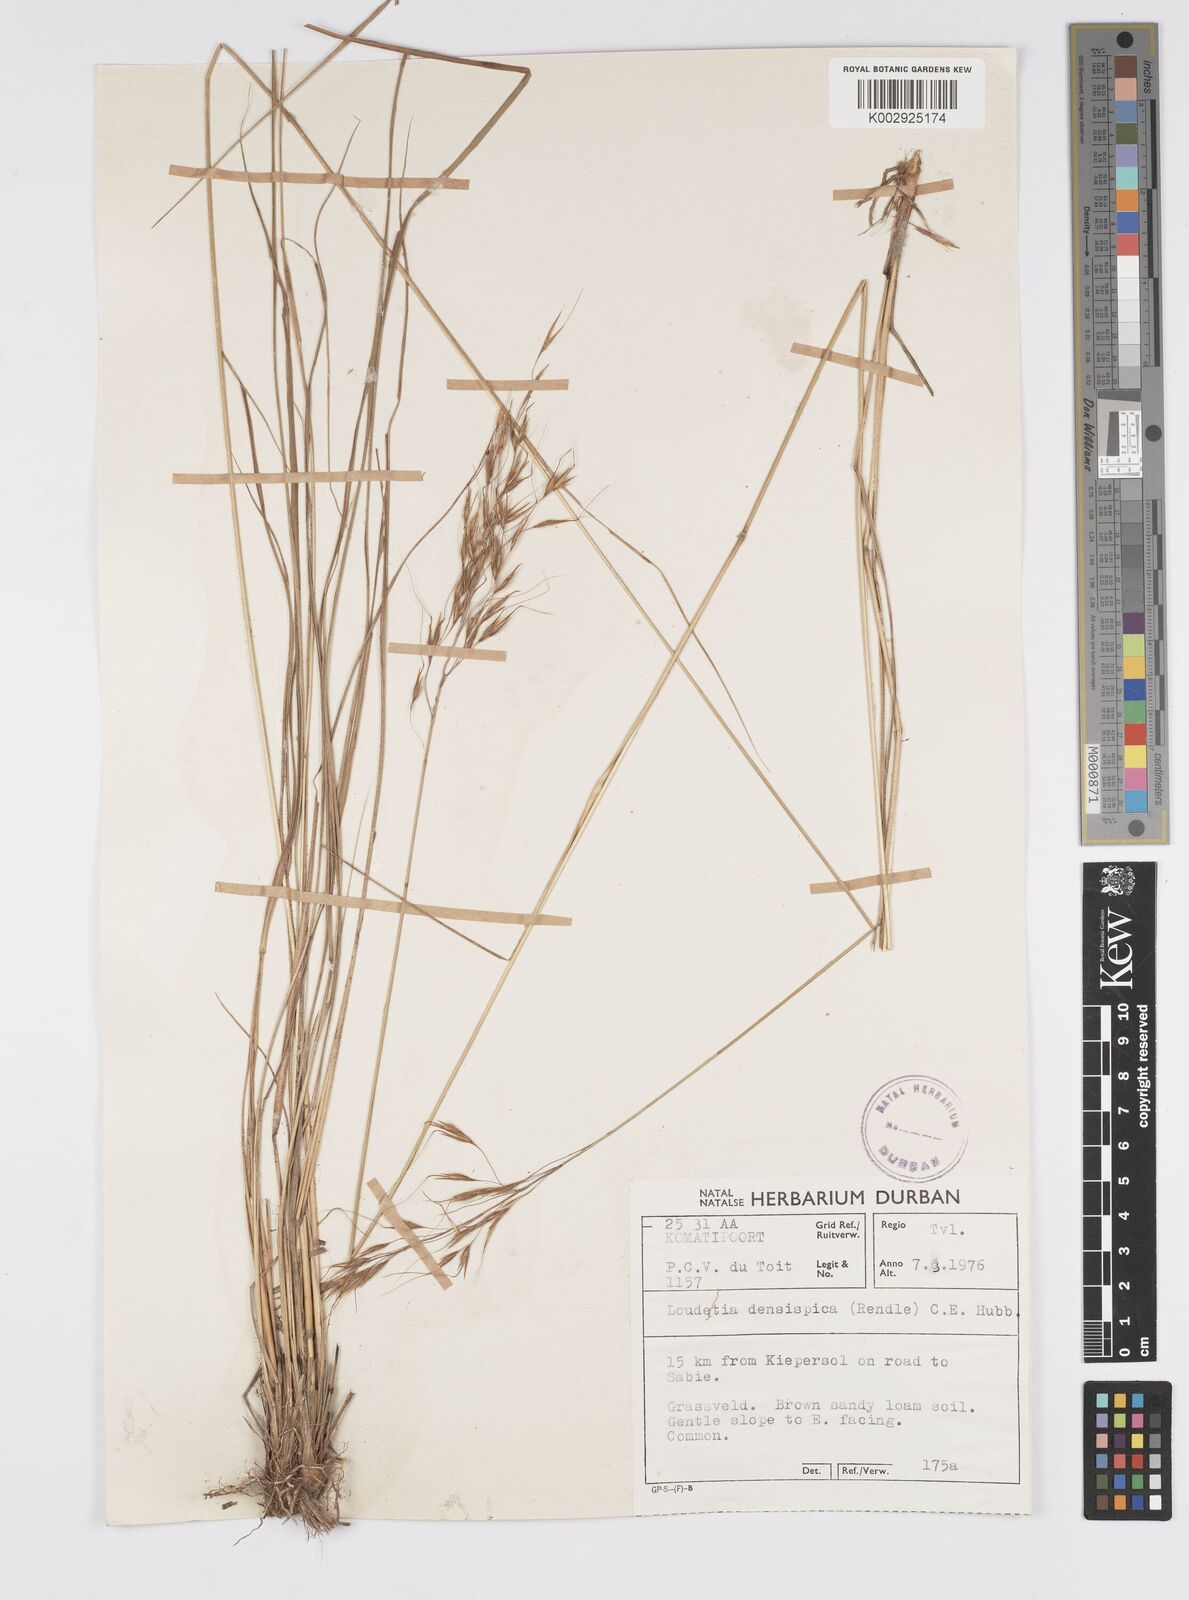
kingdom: Plantae
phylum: Tracheophyta
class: Liliopsida
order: Poales
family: Poaceae
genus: Loudetia
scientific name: Loudetia simplex
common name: Common russet grass
